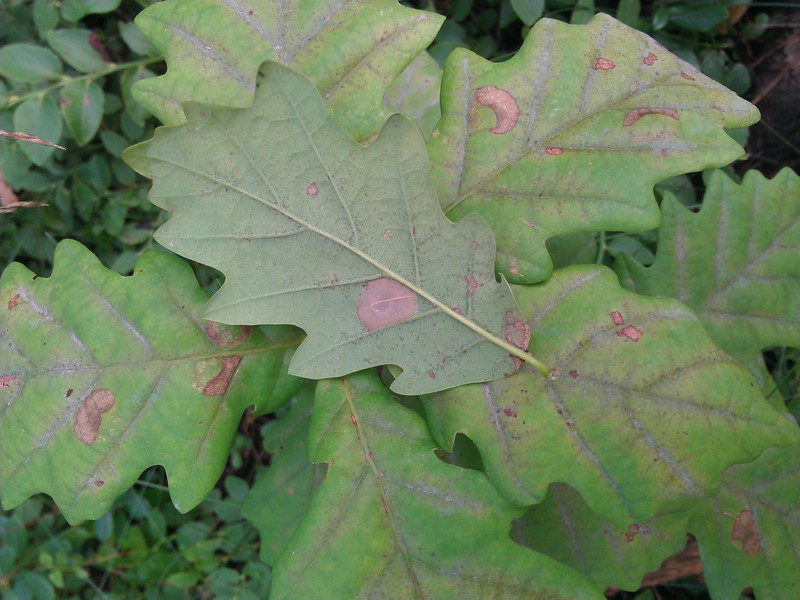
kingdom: Animalia
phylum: Arthropoda
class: Insecta
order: Hymenoptera
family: Tenthredinidae
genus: Profenusa
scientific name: Profenusa pygmaea
